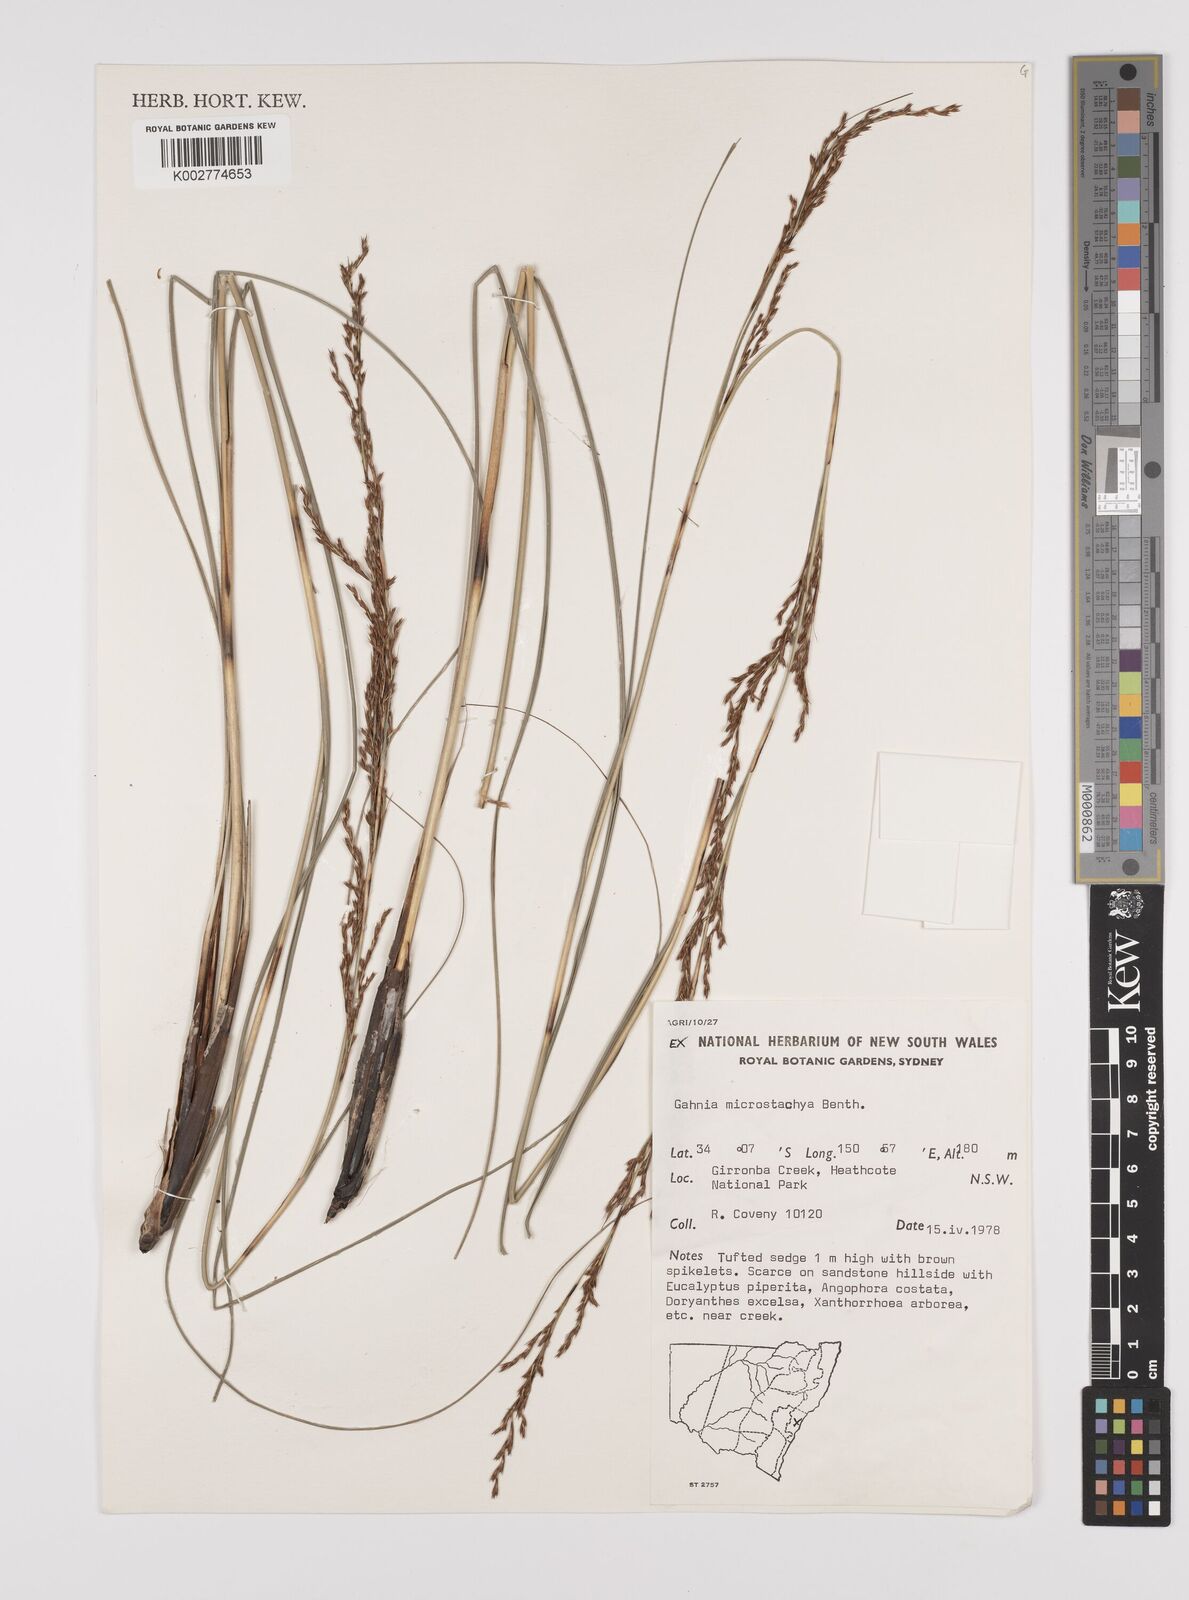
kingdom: Plantae
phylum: Tracheophyta
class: Liliopsida
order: Poales
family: Cyperaceae
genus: Gahnia
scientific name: Gahnia microstachya
